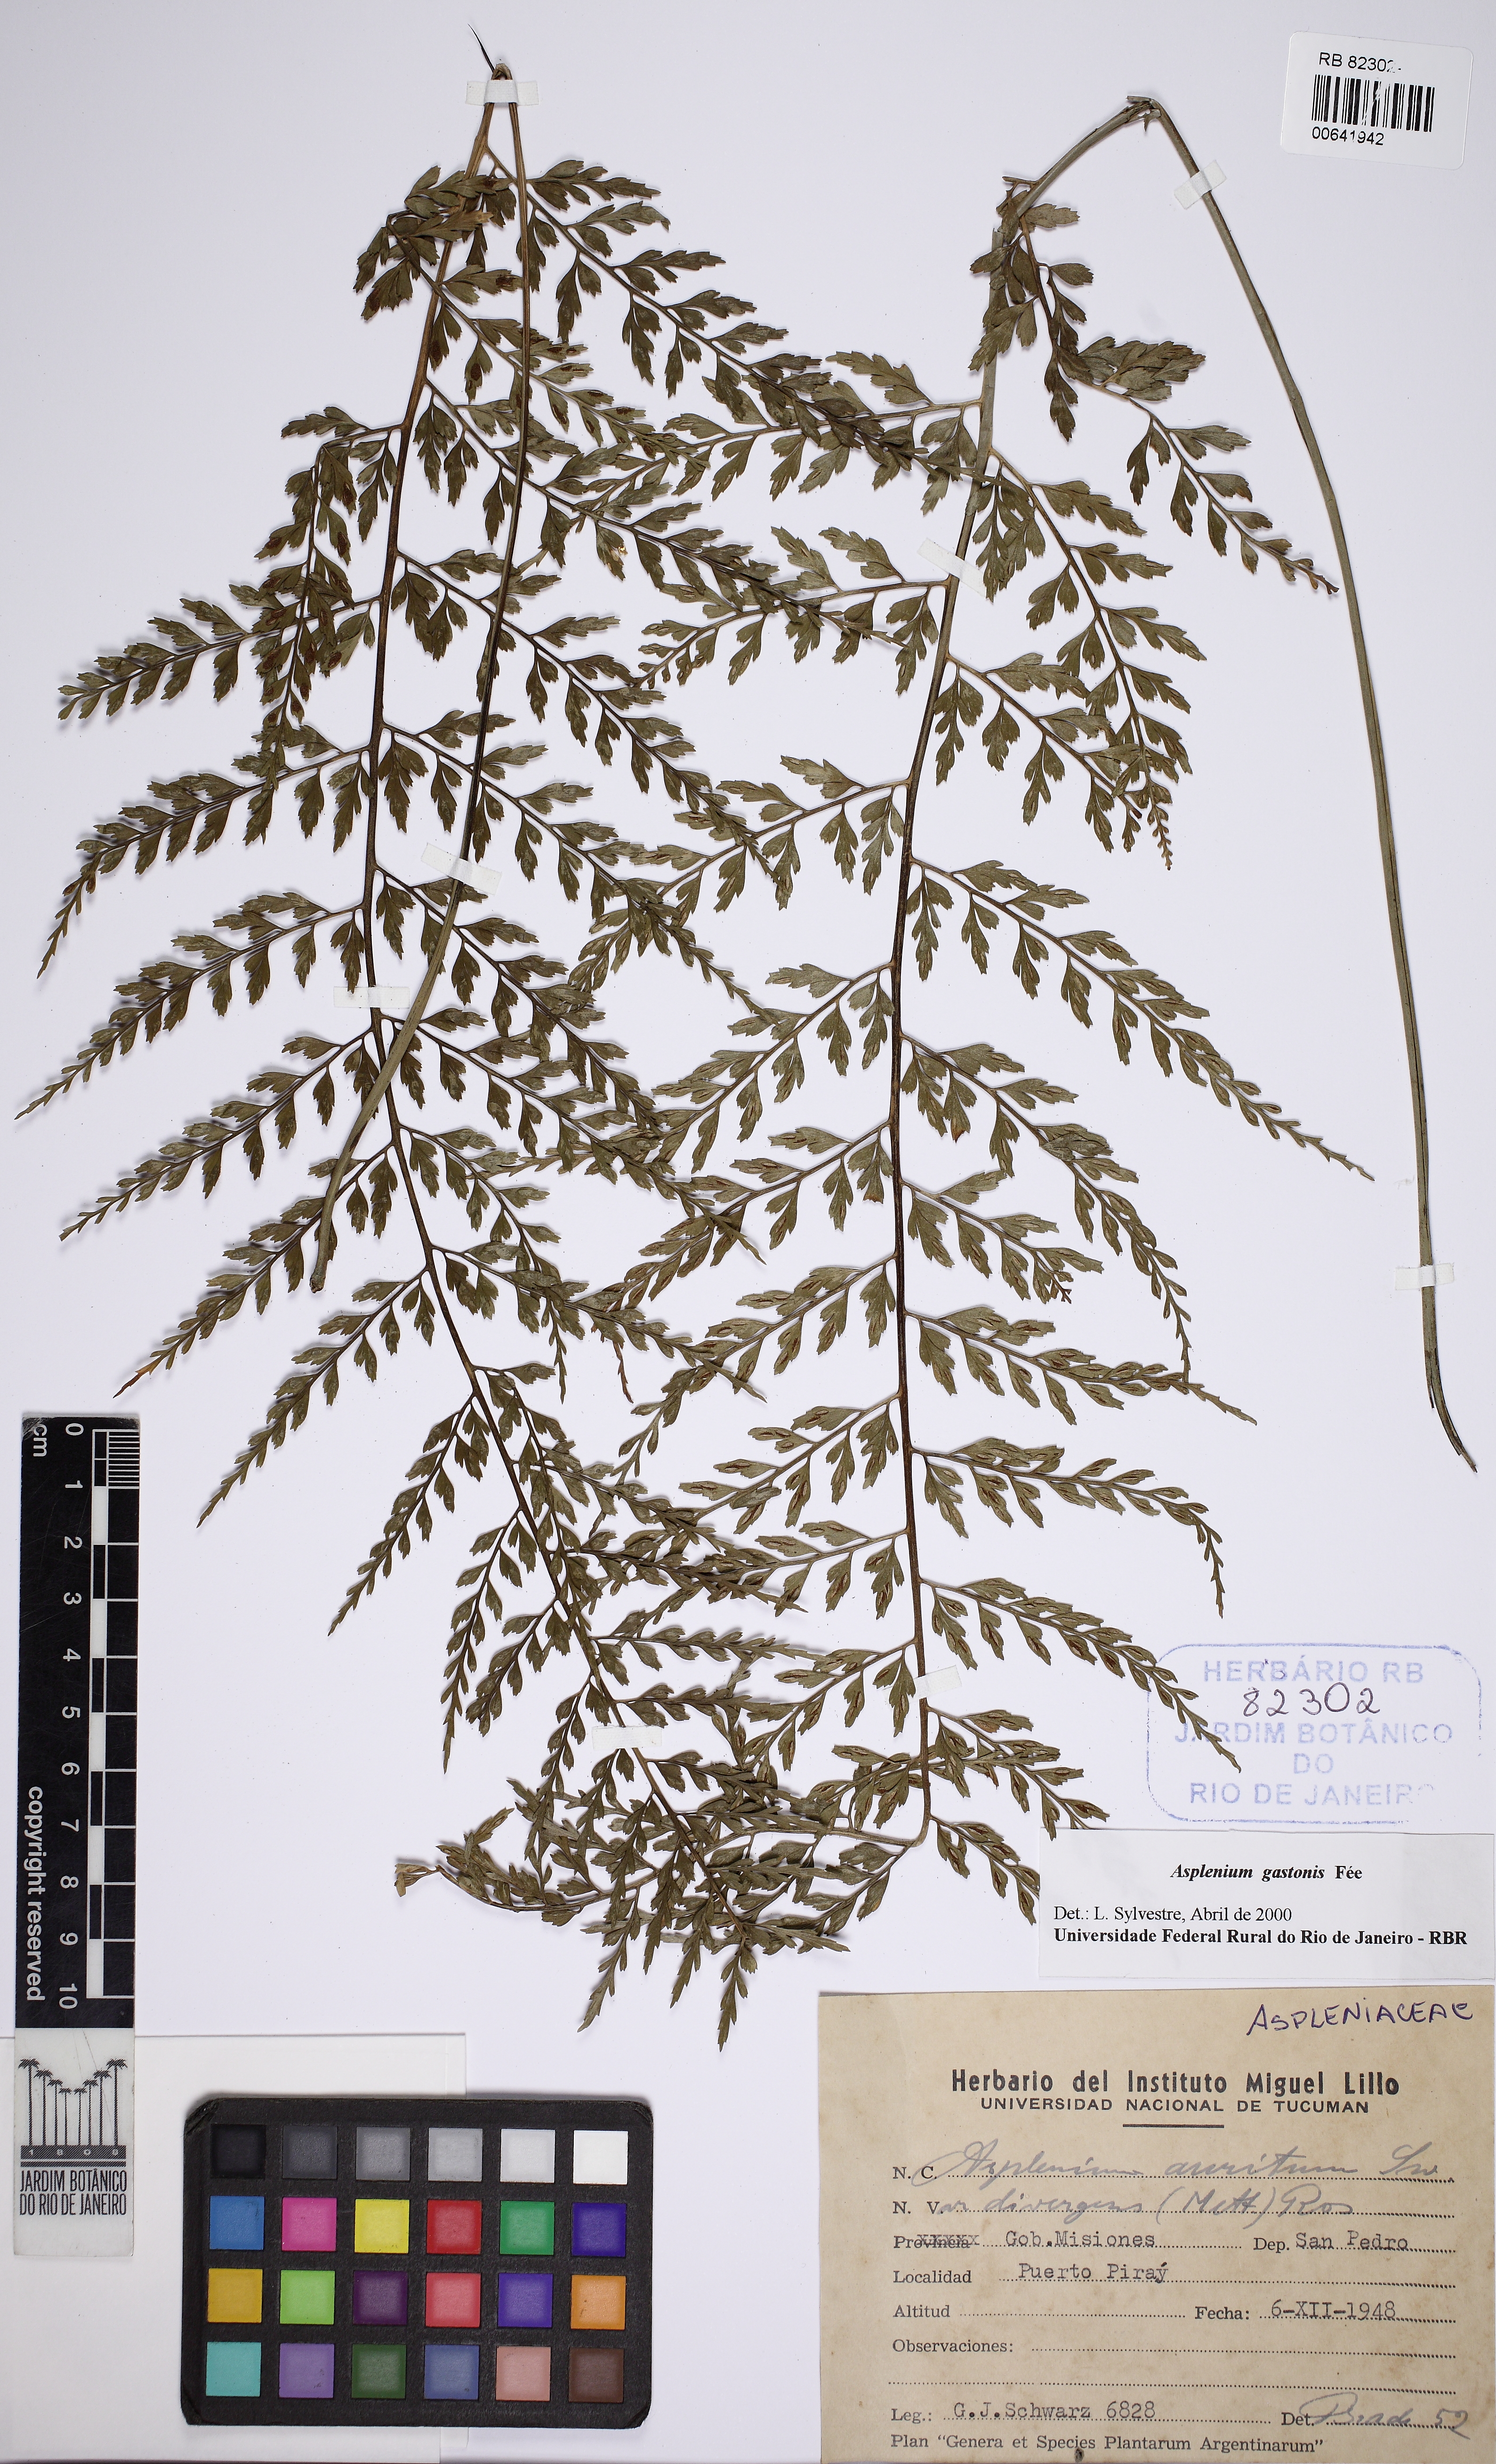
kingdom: Plantae
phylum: Tracheophyta
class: Polypodiopsida
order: Polypodiales
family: Aspleniaceae
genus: Asplenium
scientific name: Asplenium gastonis
